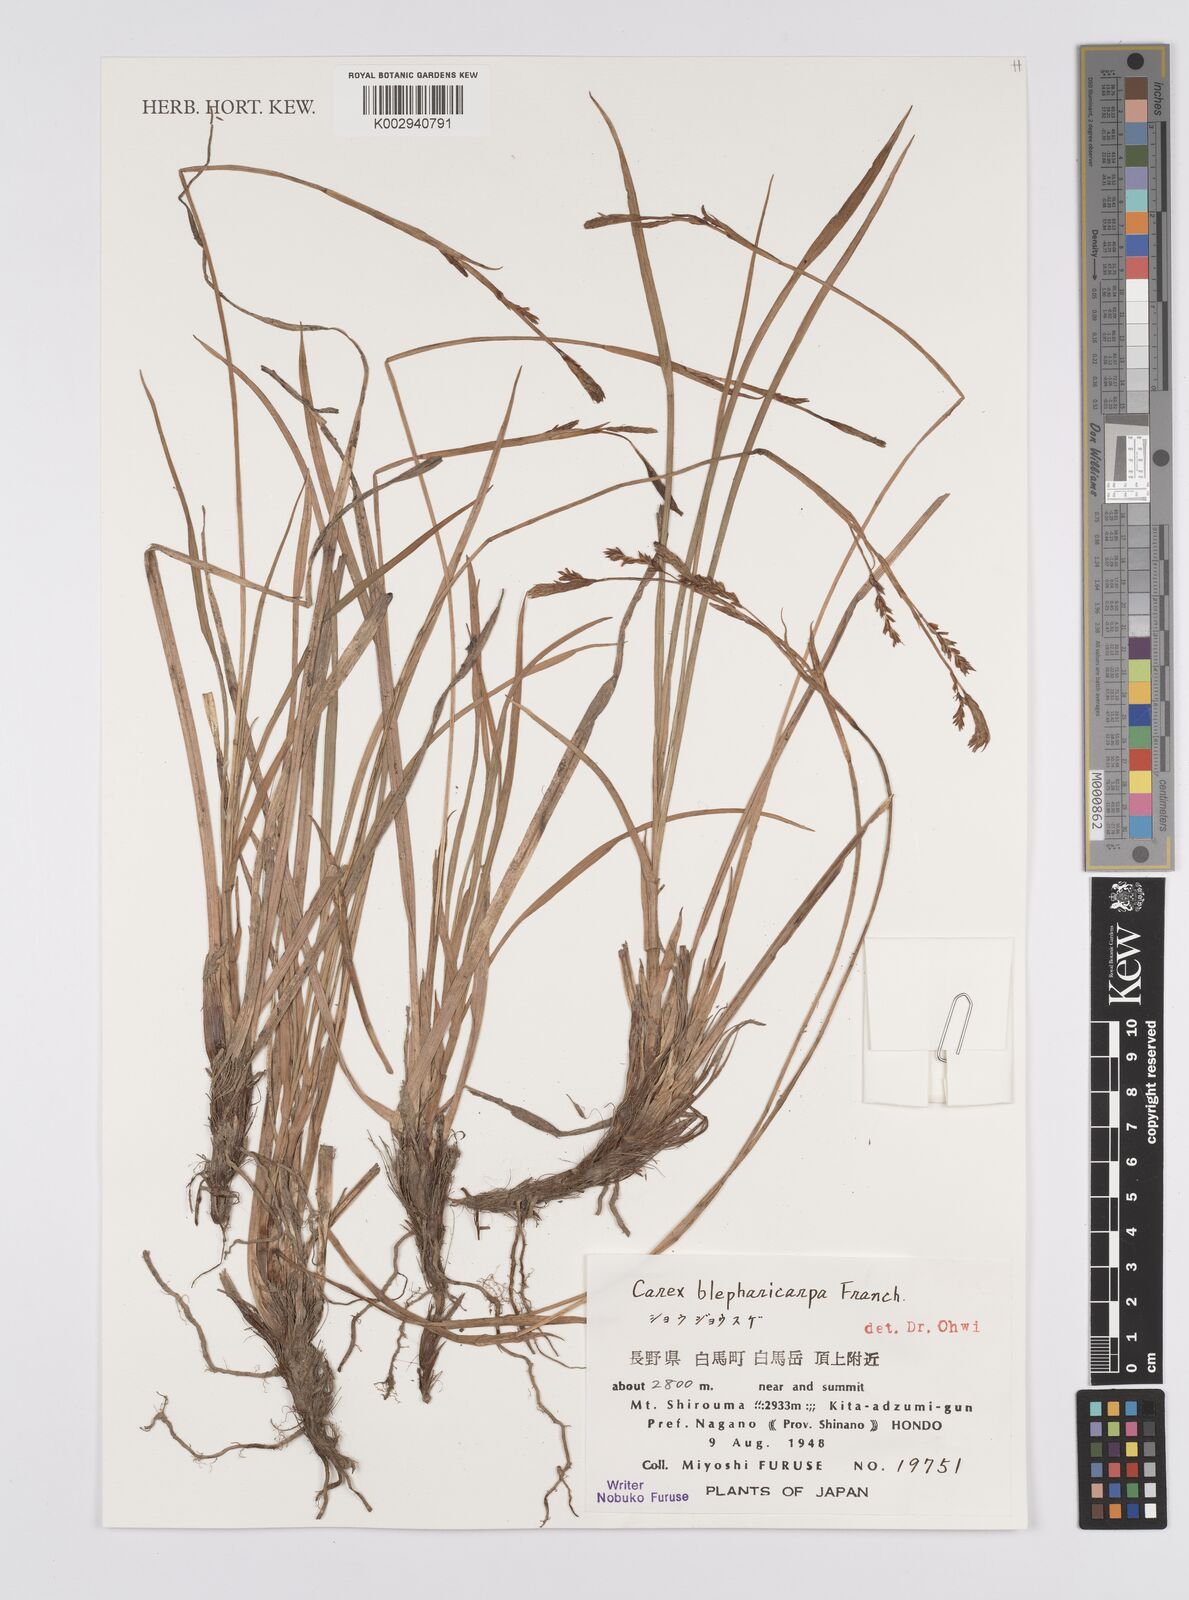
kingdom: Plantae
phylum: Tracheophyta
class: Liliopsida
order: Poales
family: Cyperaceae
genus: Carex
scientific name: Carex blepharicarpa
